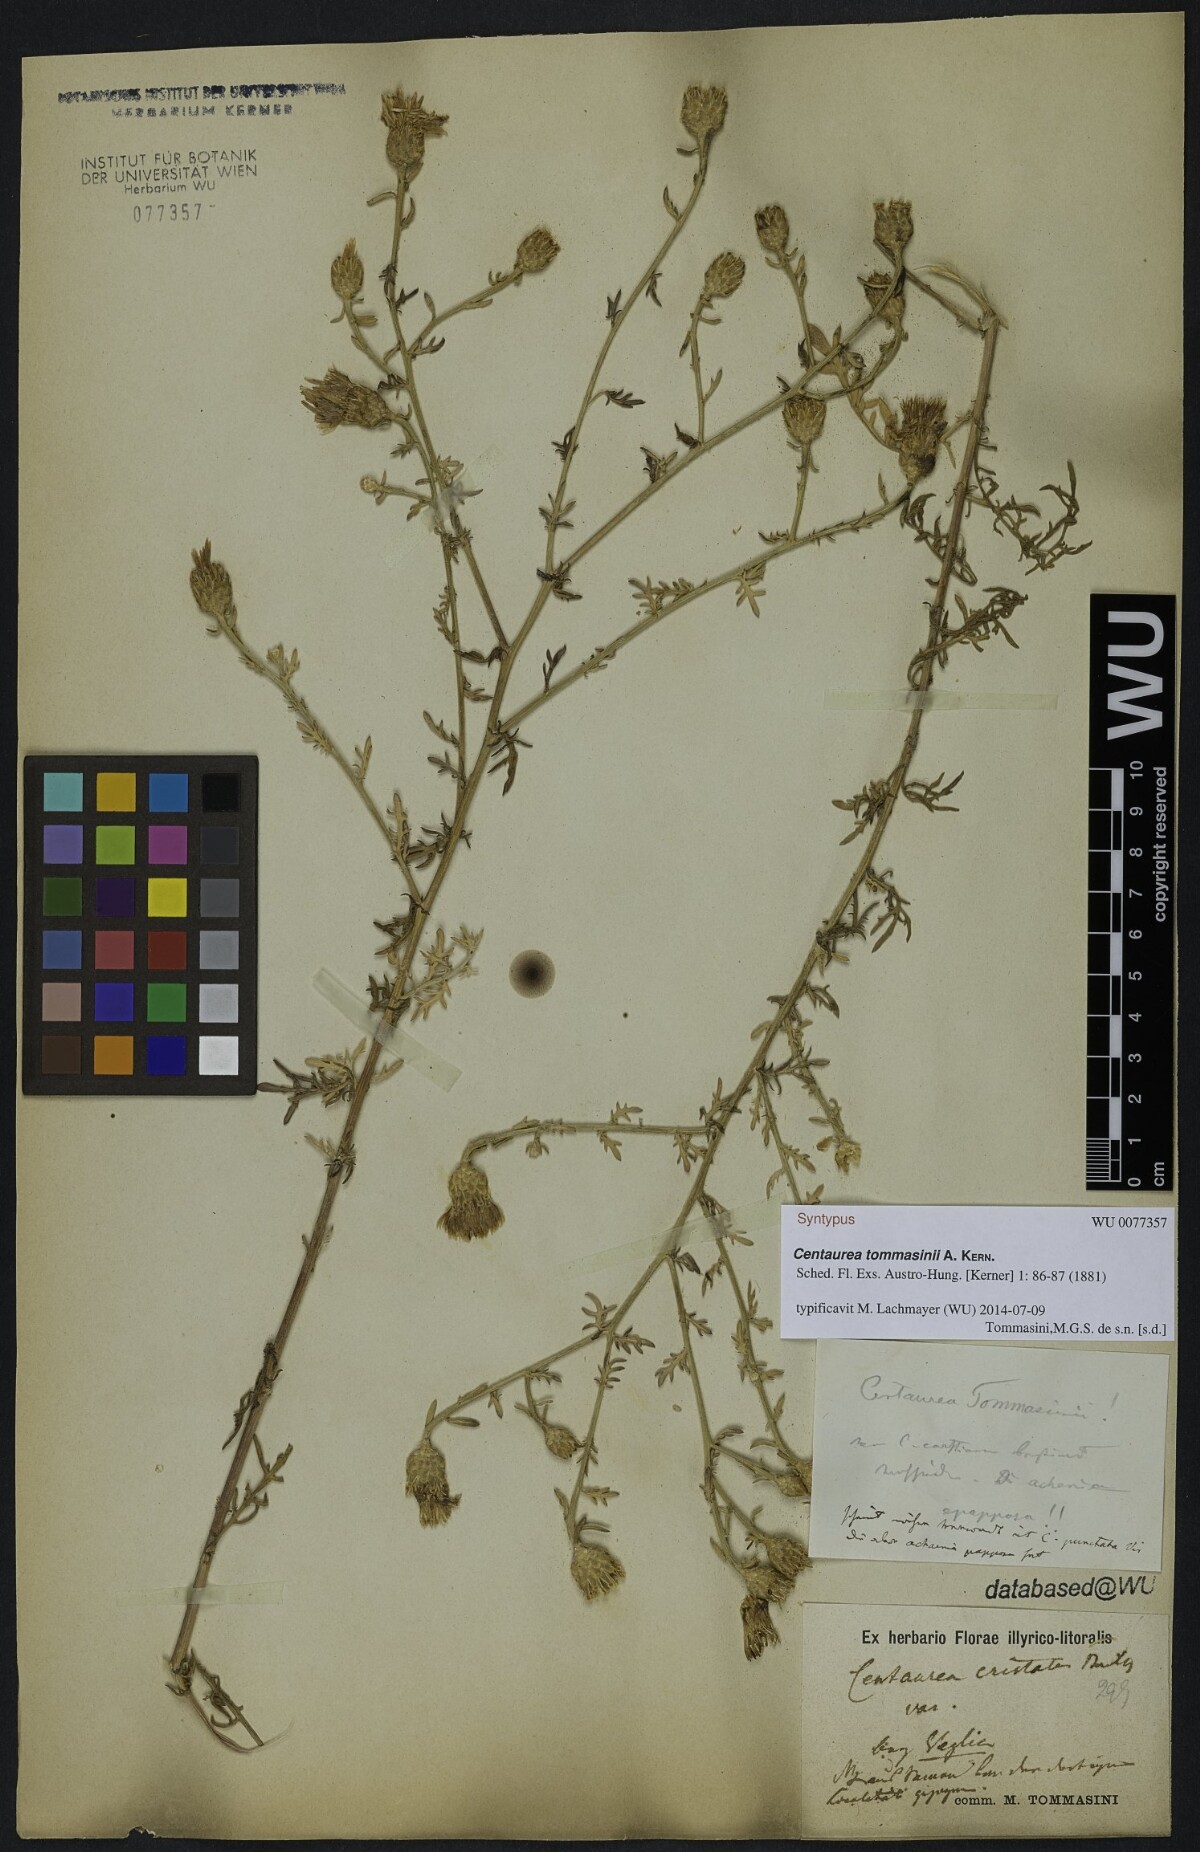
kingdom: Plantae
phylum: Tracheophyta
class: Magnoliopsida
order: Asterales
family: Asteraceae
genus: Centaurea
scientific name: Centaurea tommasinii
